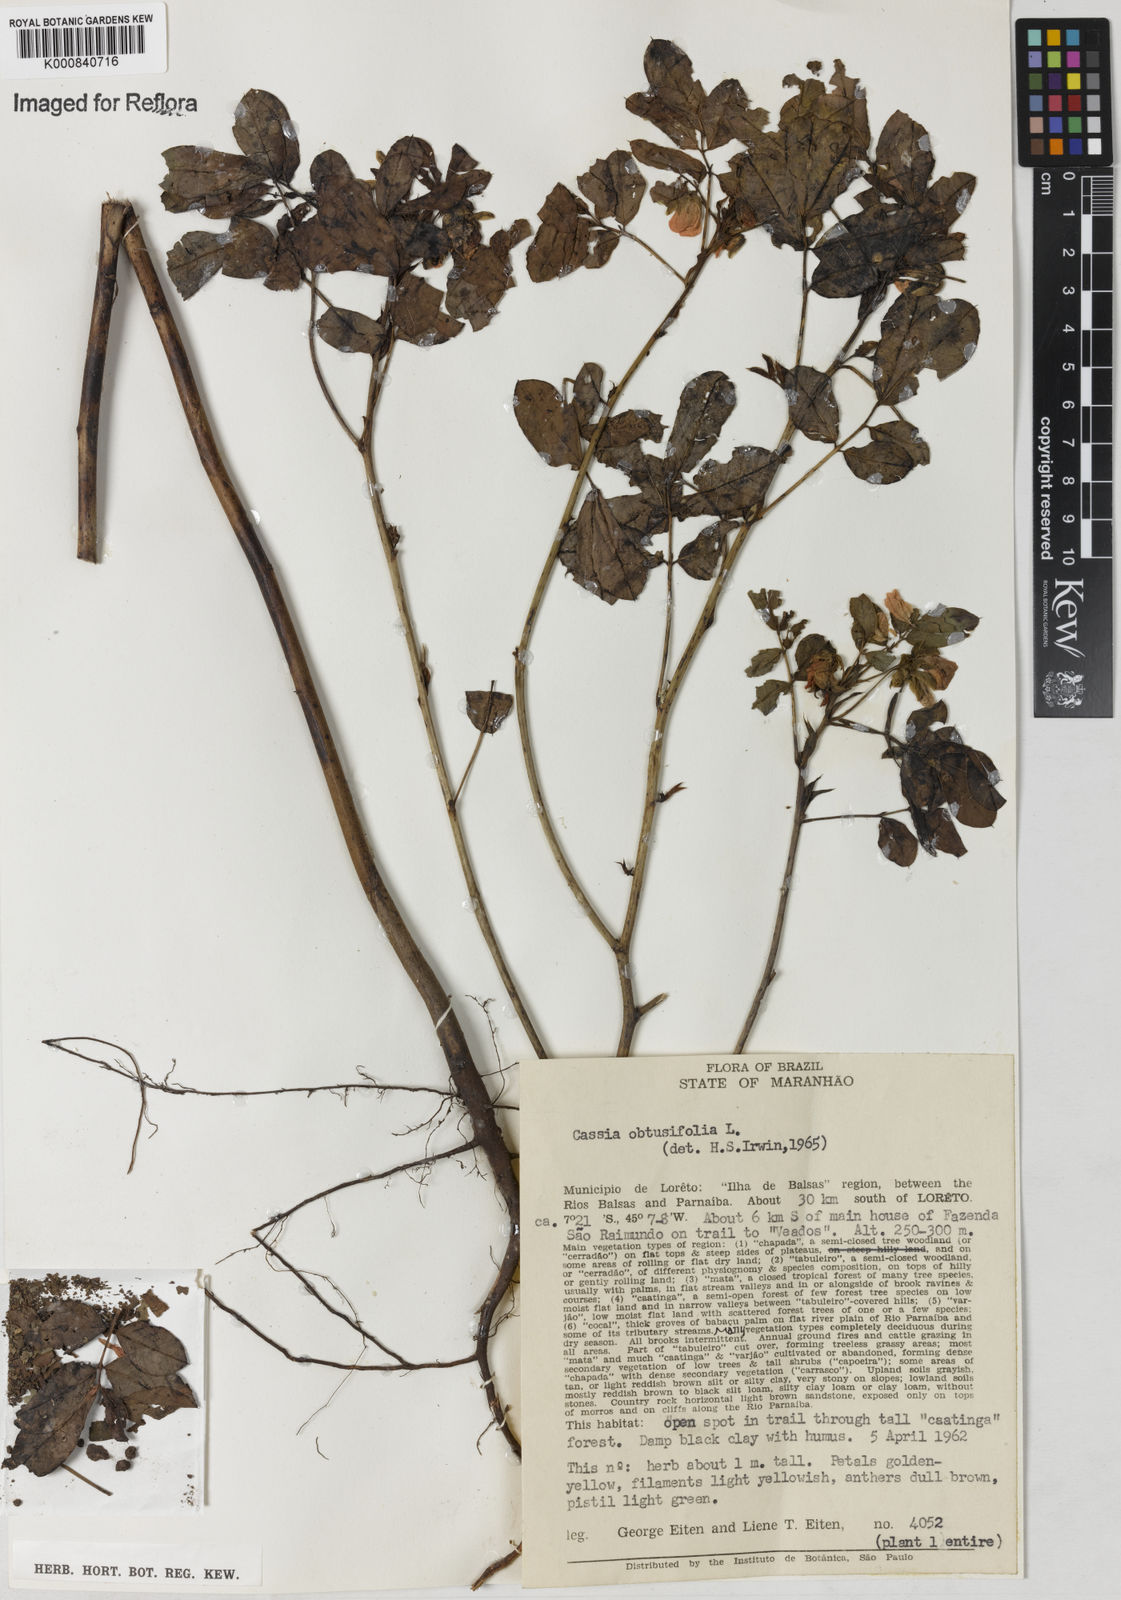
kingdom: Plantae
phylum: Tracheophyta
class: Magnoliopsida
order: Fabales
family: Fabaceae
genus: Senna
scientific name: Senna obtusifolia
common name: Java-bean
